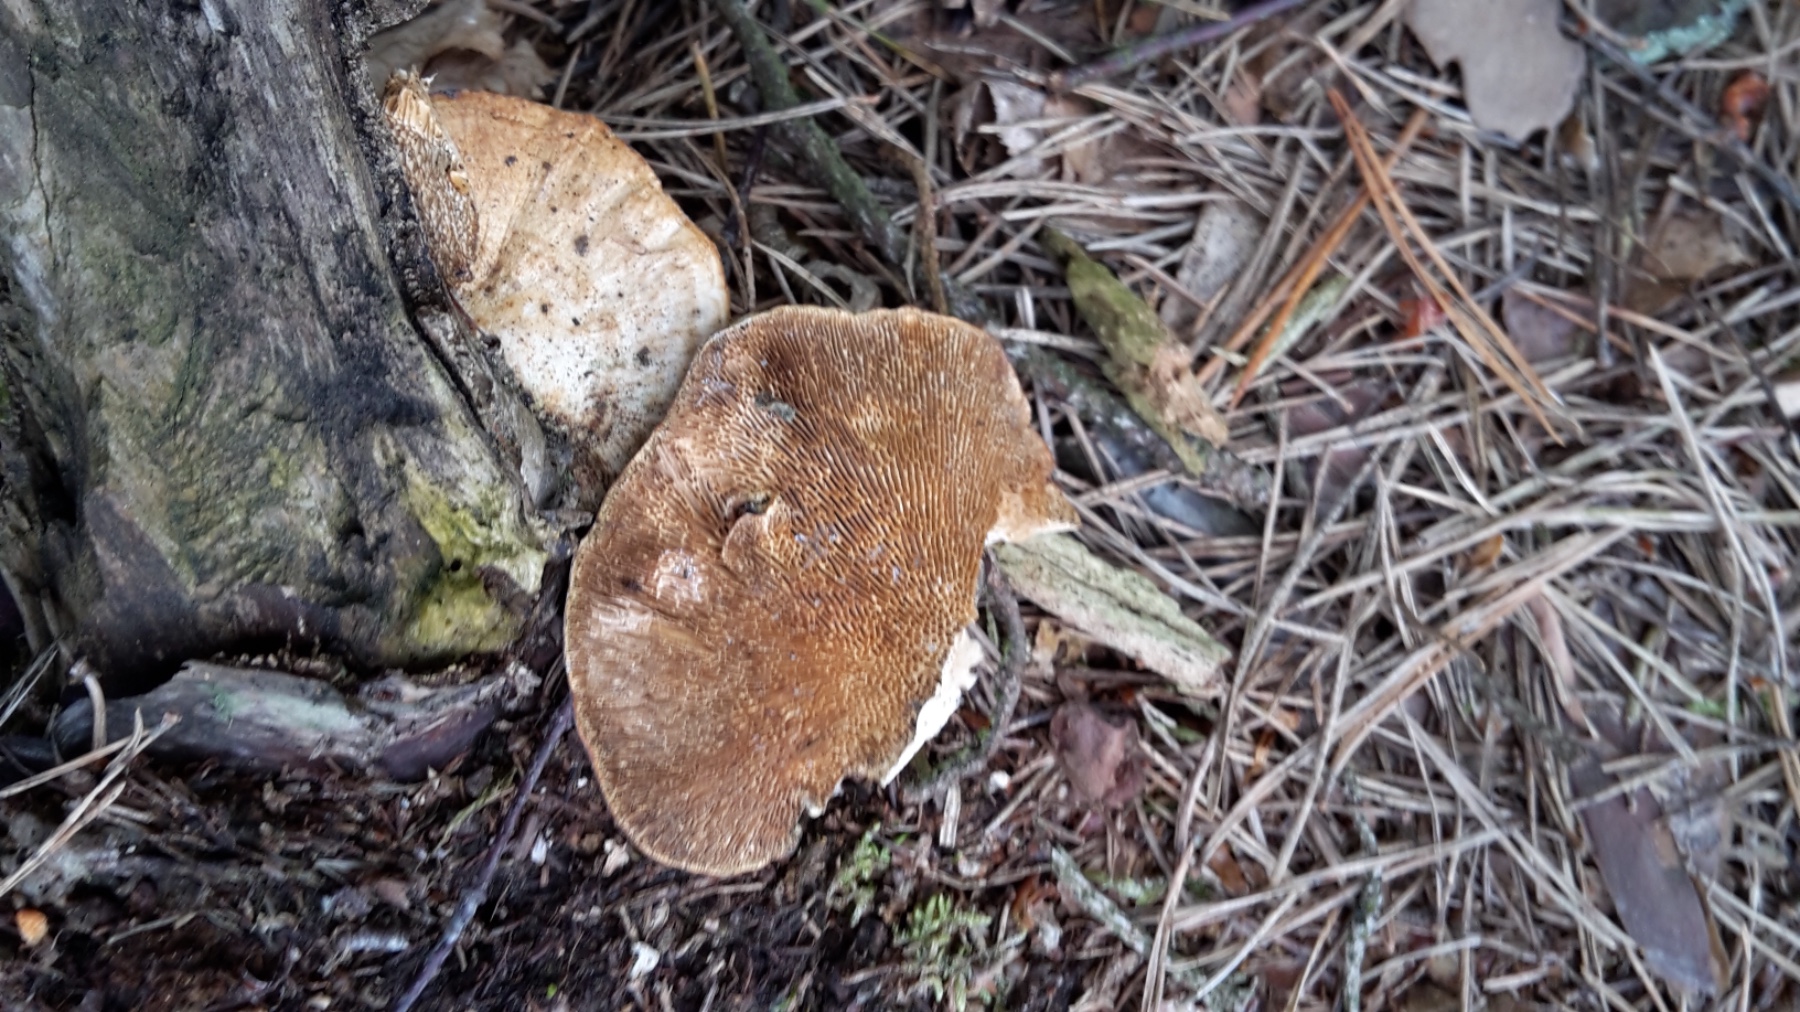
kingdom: Fungi
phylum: Basidiomycota
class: Agaricomycetes
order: Polyporales
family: Polyporaceae
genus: Daedaleopsis
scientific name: Daedaleopsis confragosa
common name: rødmende læderporesvamp
